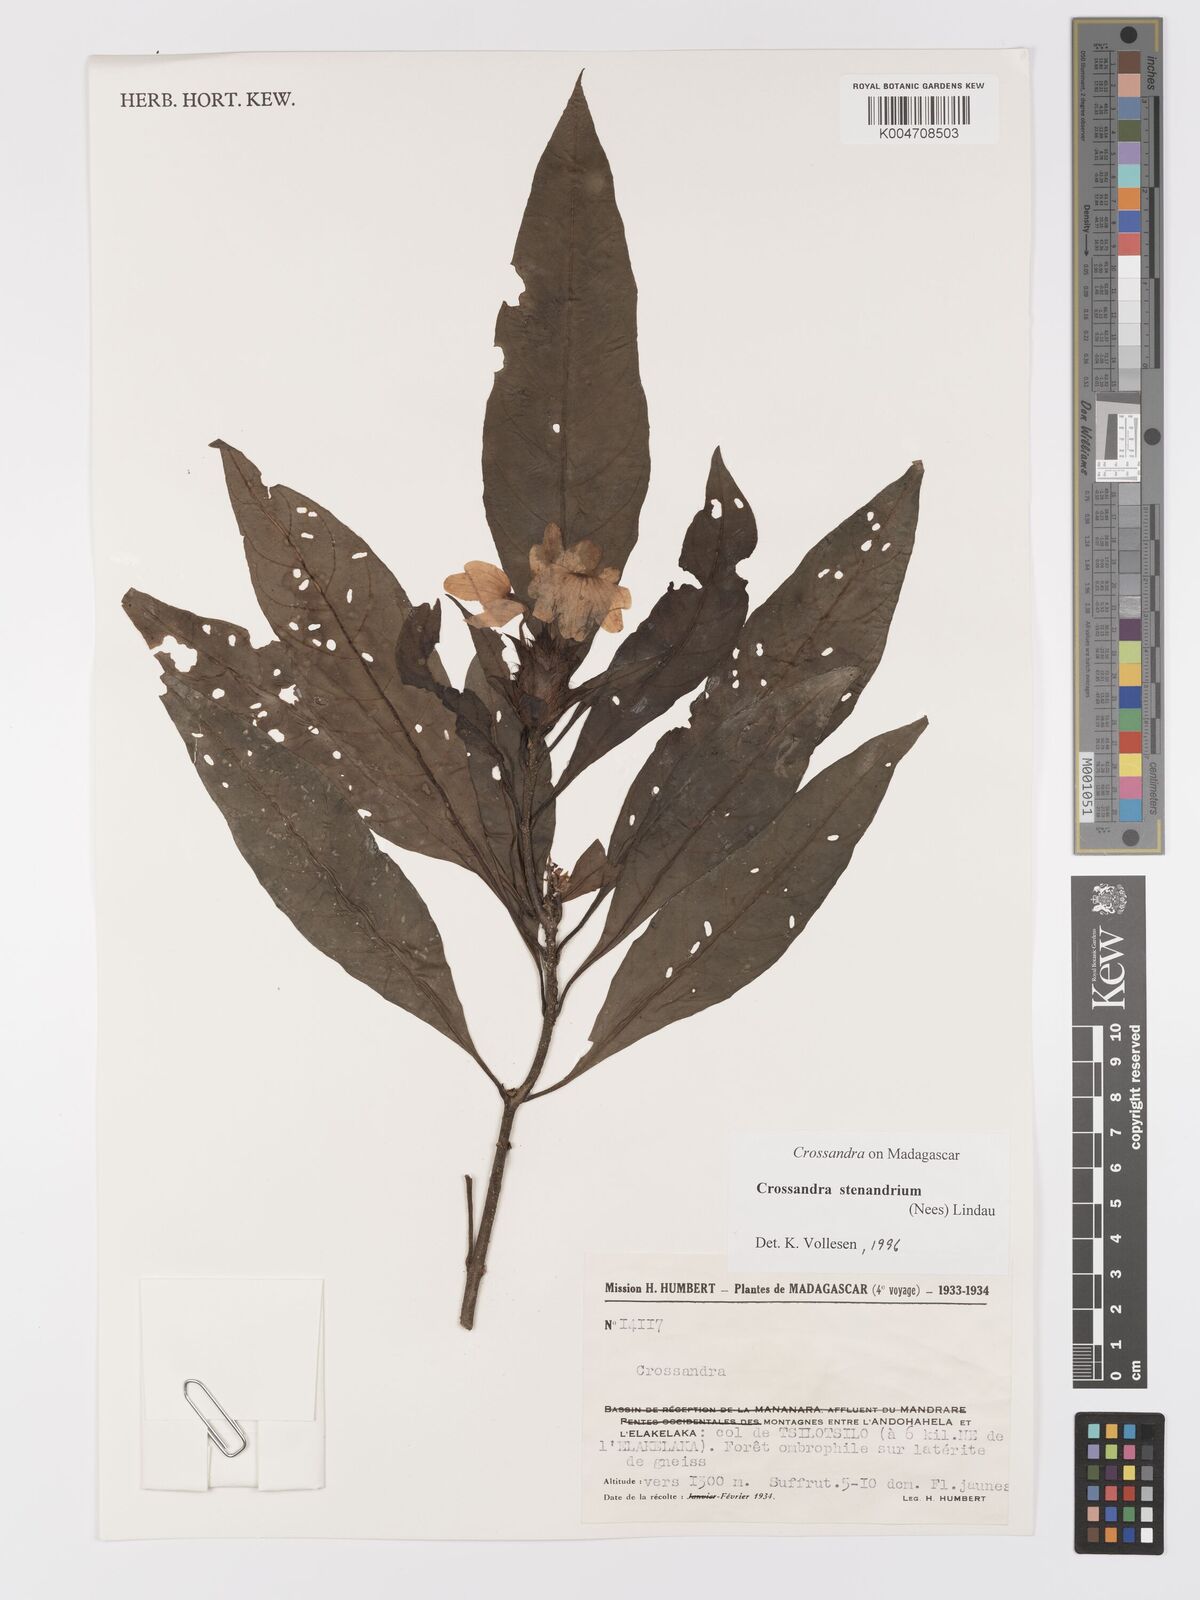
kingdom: Plantae
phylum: Tracheophyta
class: Magnoliopsida
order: Lamiales
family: Acanthaceae
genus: Crossandra
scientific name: Crossandra stenandrium
